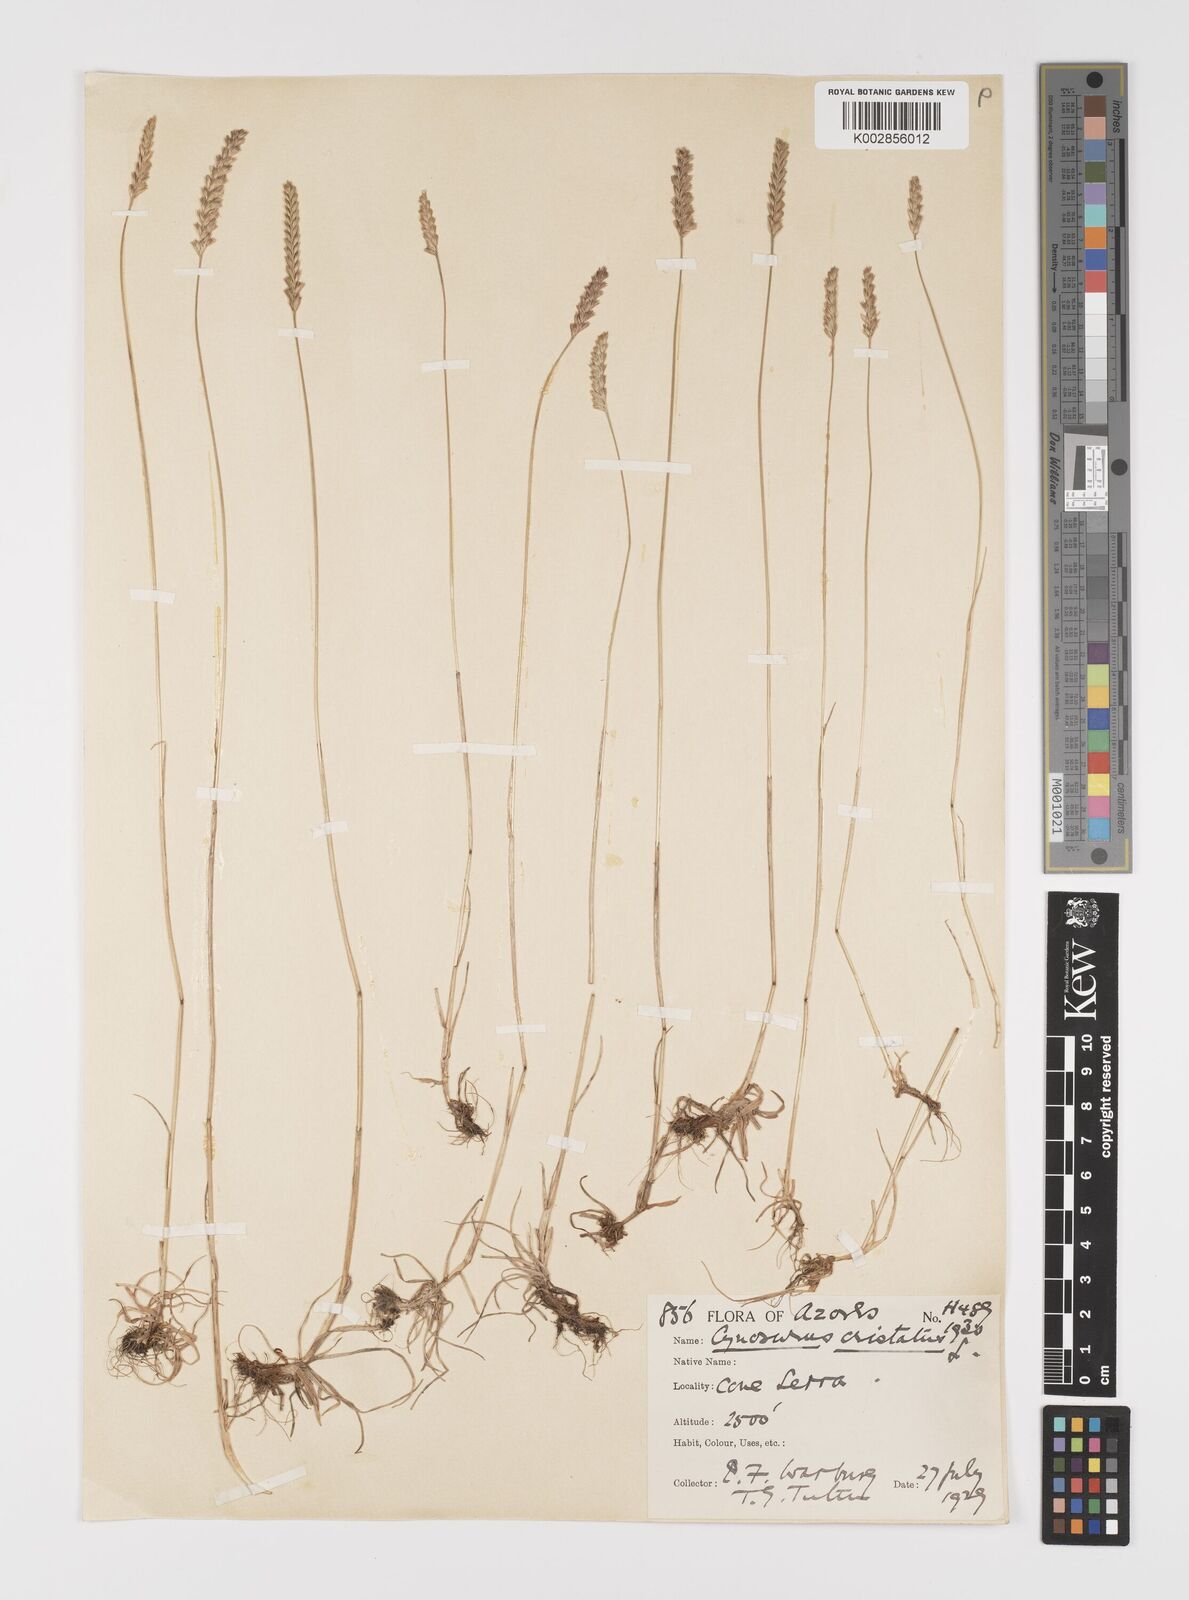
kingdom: Plantae
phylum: Tracheophyta
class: Liliopsida
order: Poales
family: Poaceae
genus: Cynosurus
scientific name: Cynosurus cristatus
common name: Crested dog's-tail
